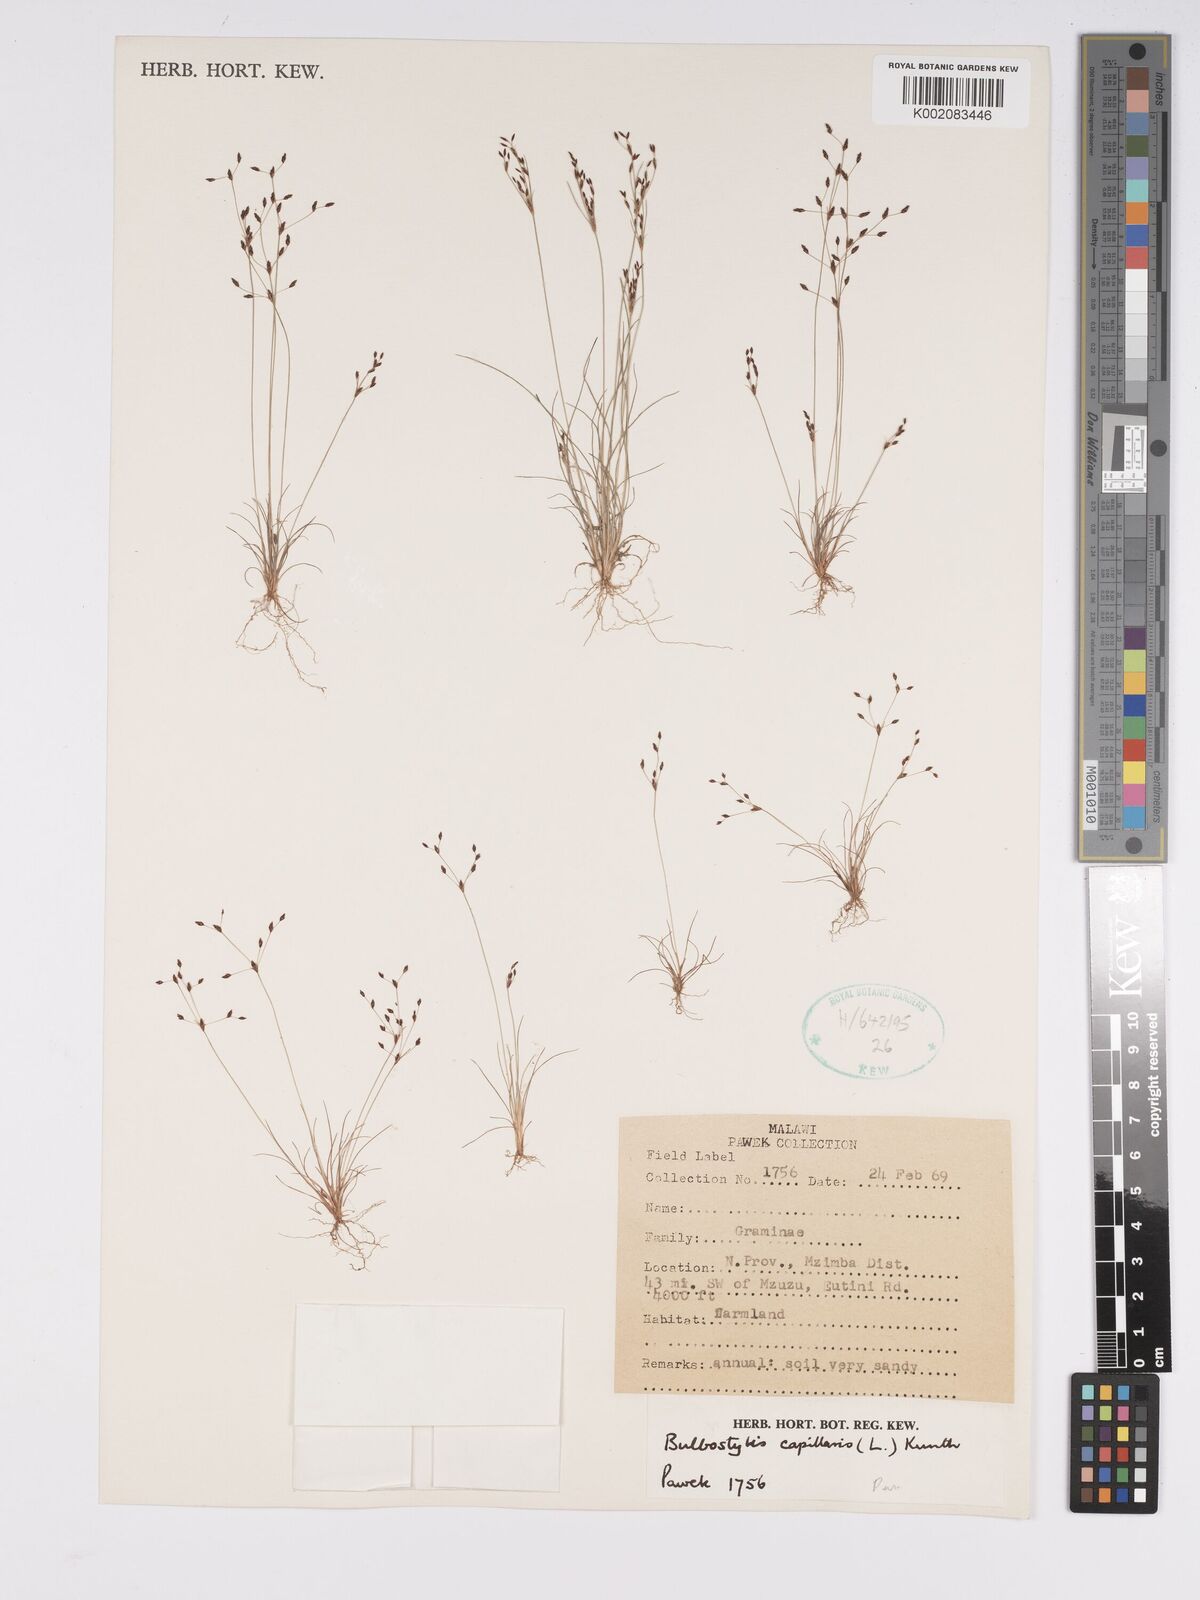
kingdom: Plantae
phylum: Tracheophyta
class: Liliopsida
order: Poales
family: Cyperaceae
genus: Bulbostylis
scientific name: Bulbostylis capillaris
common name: Densetuft hairsedge
